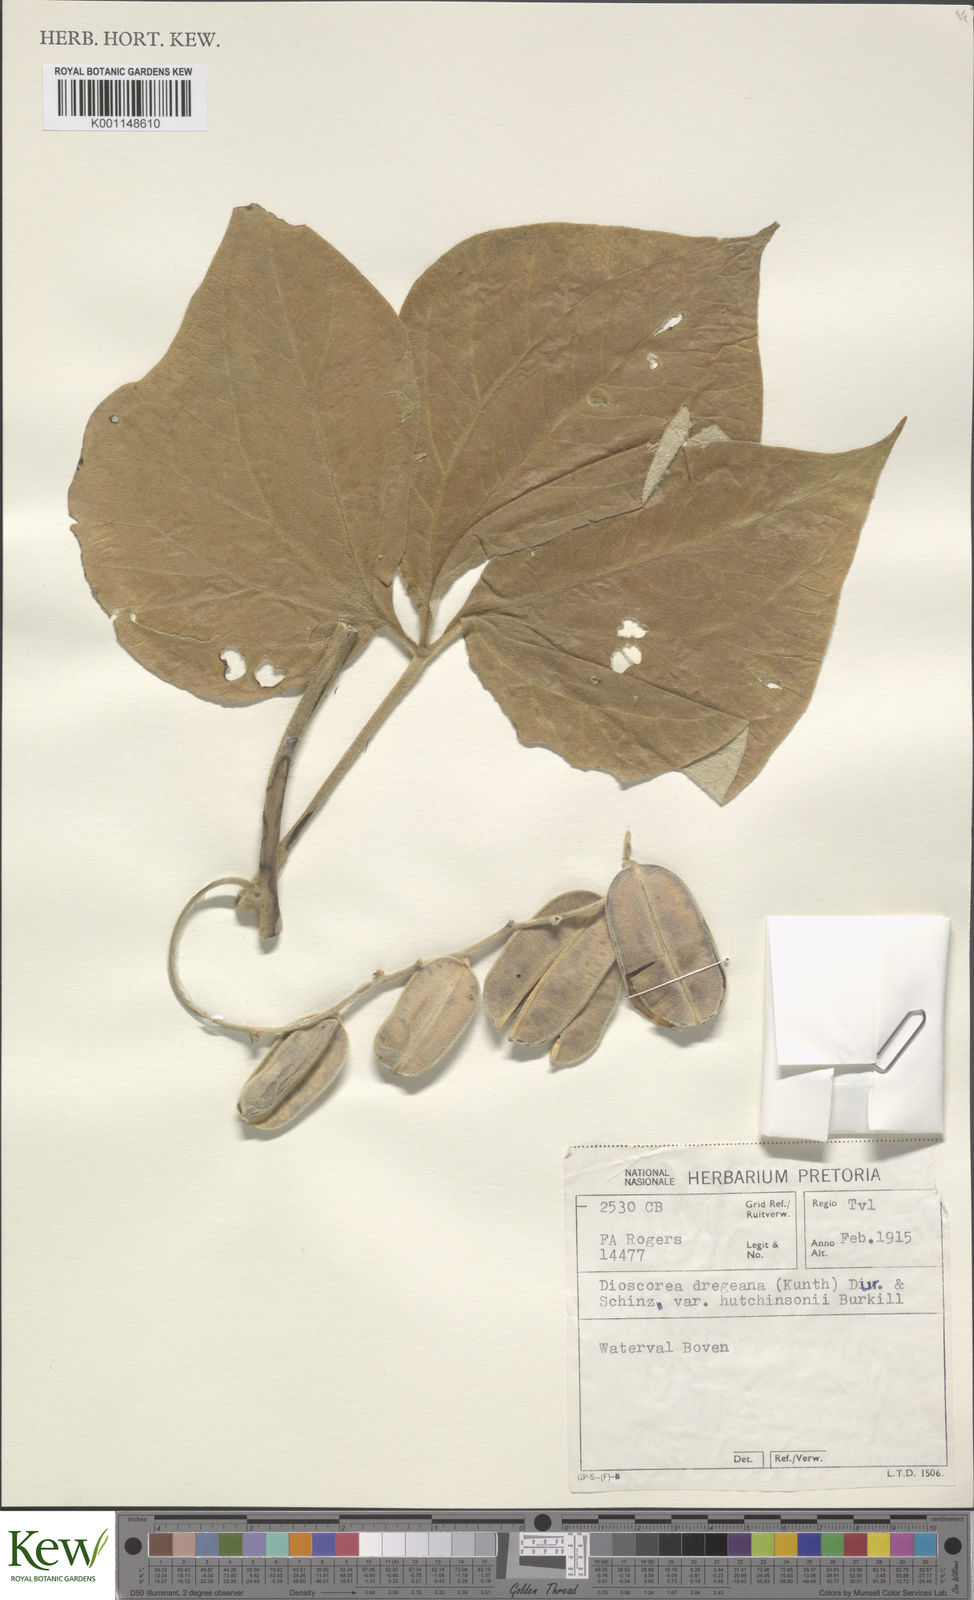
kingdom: Plantae
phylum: Tracheophyta
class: Liliopsida
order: Dioscoreales
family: Dioscoreaceae
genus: Dioscorea
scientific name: Dioscorea dregeana
